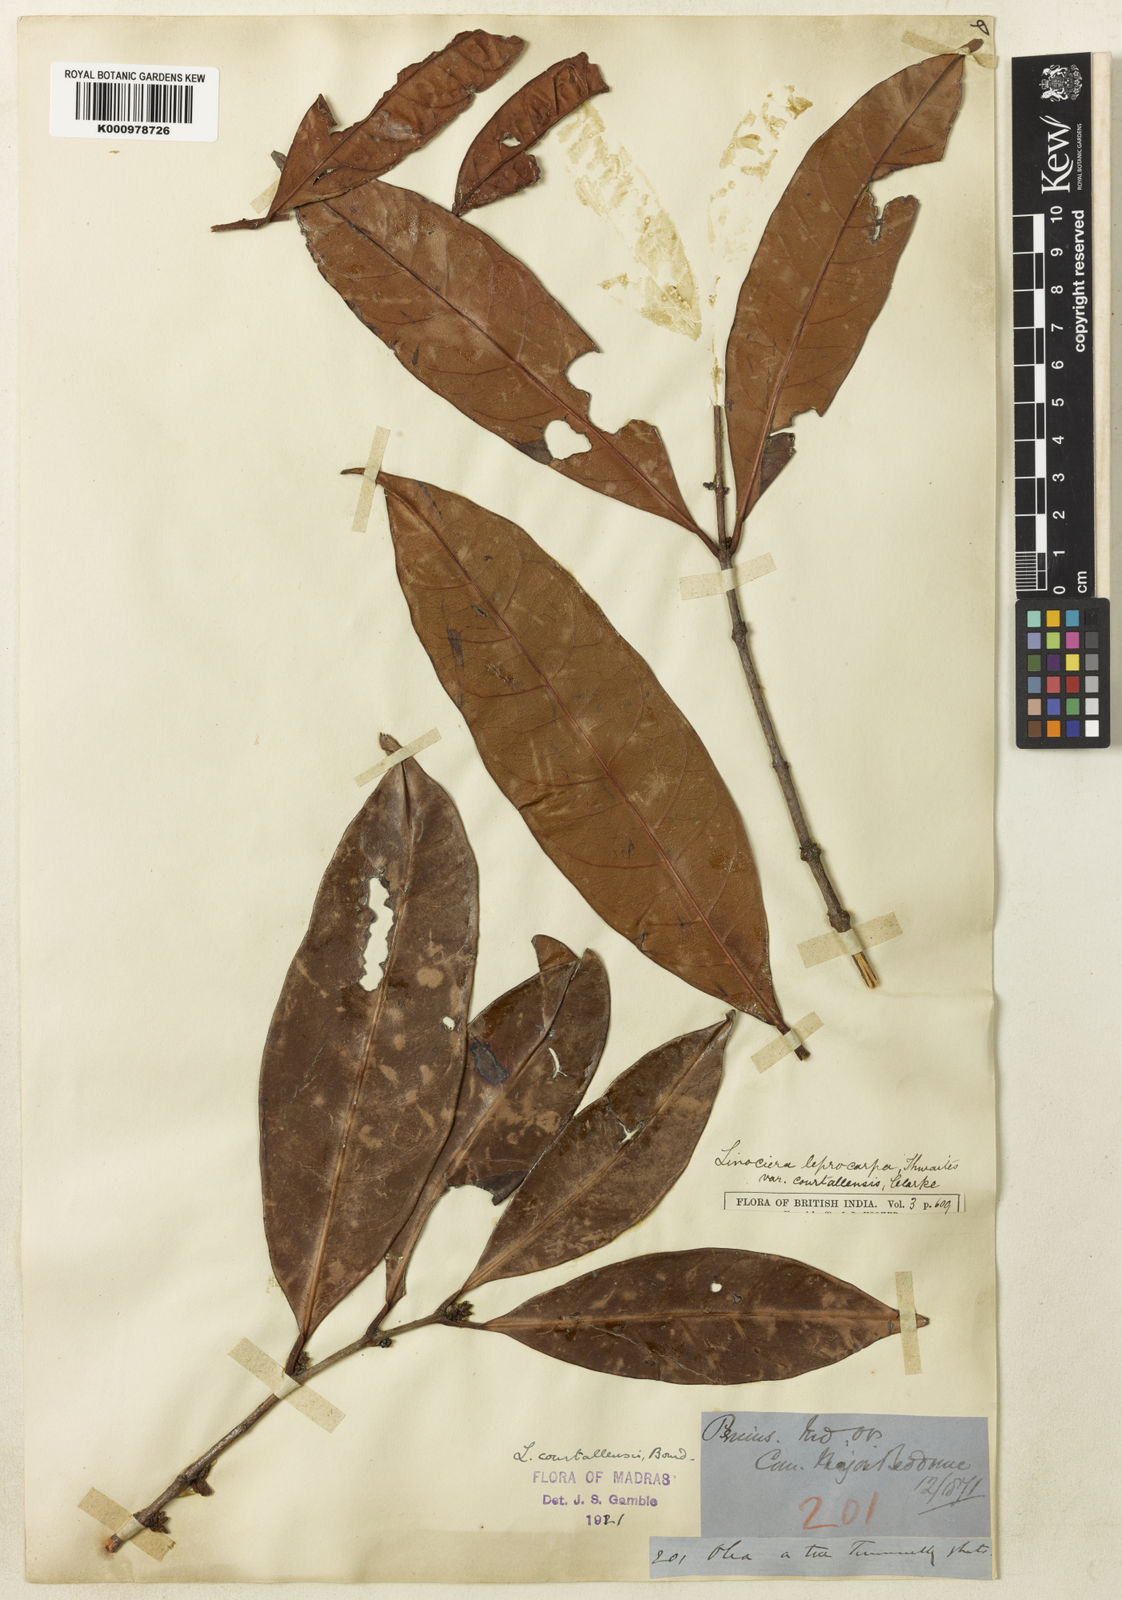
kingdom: Plantae
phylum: Tracheophyta
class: Magnoliopsida
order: Lamiales
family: Oleaceae
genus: Chionanthus
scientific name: Chionanthus courtallensis
